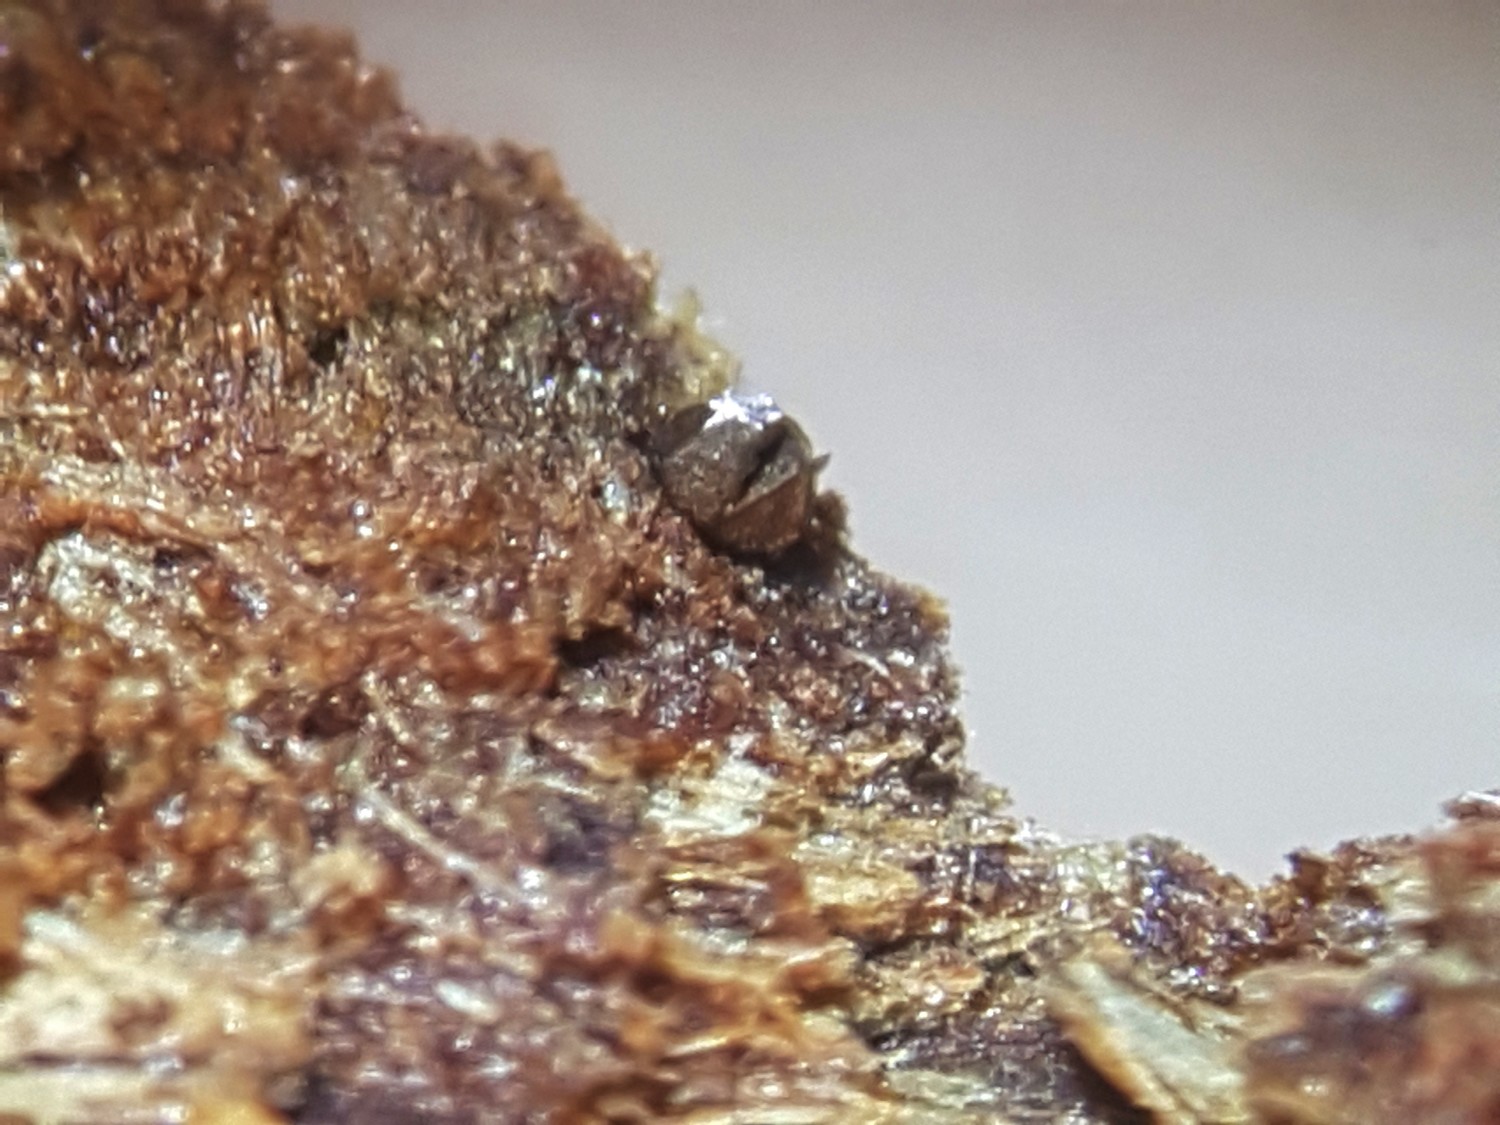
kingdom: Protozoa
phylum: Mycetozoa
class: Myxomycetes
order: Cribrariales
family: Liceaceae
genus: Licea
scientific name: Licea testudinacea
